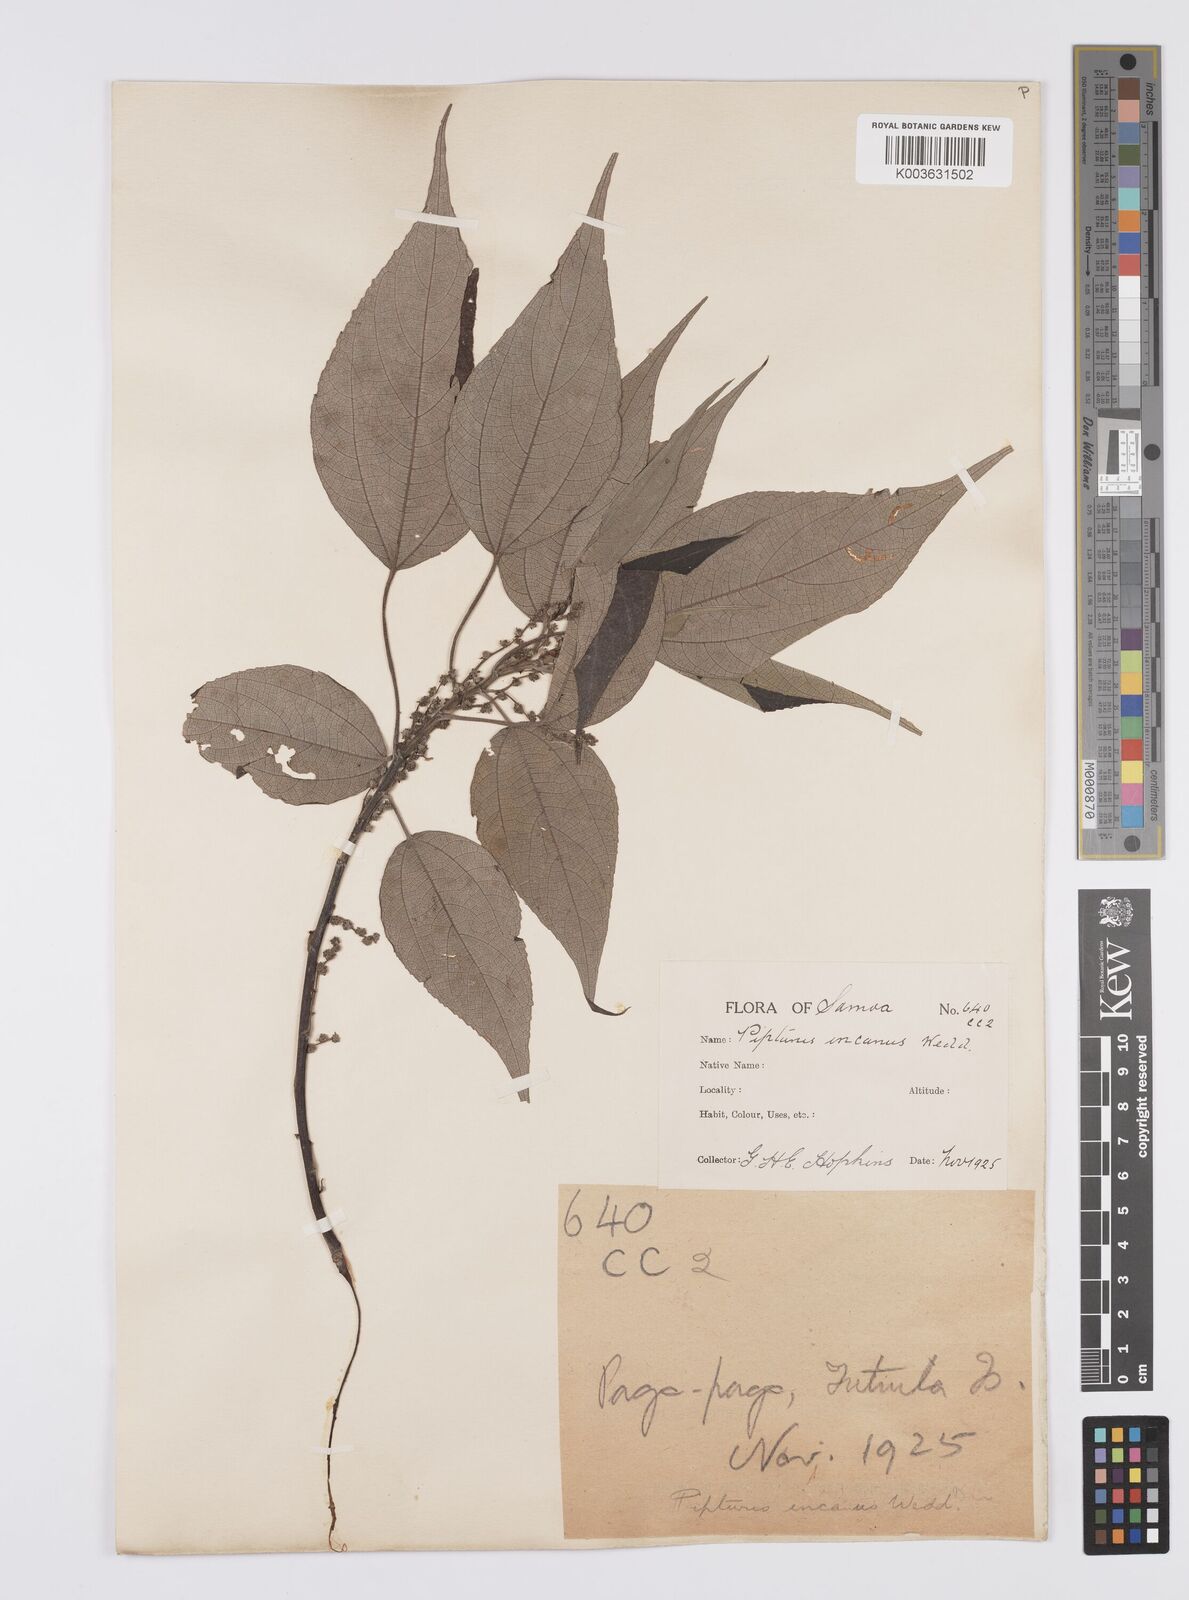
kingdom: Plantae
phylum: Tracheophyta
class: Magnoliopsida
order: Rosales
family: Urticaceae
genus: Pipturus
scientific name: Pipturus argenteus
